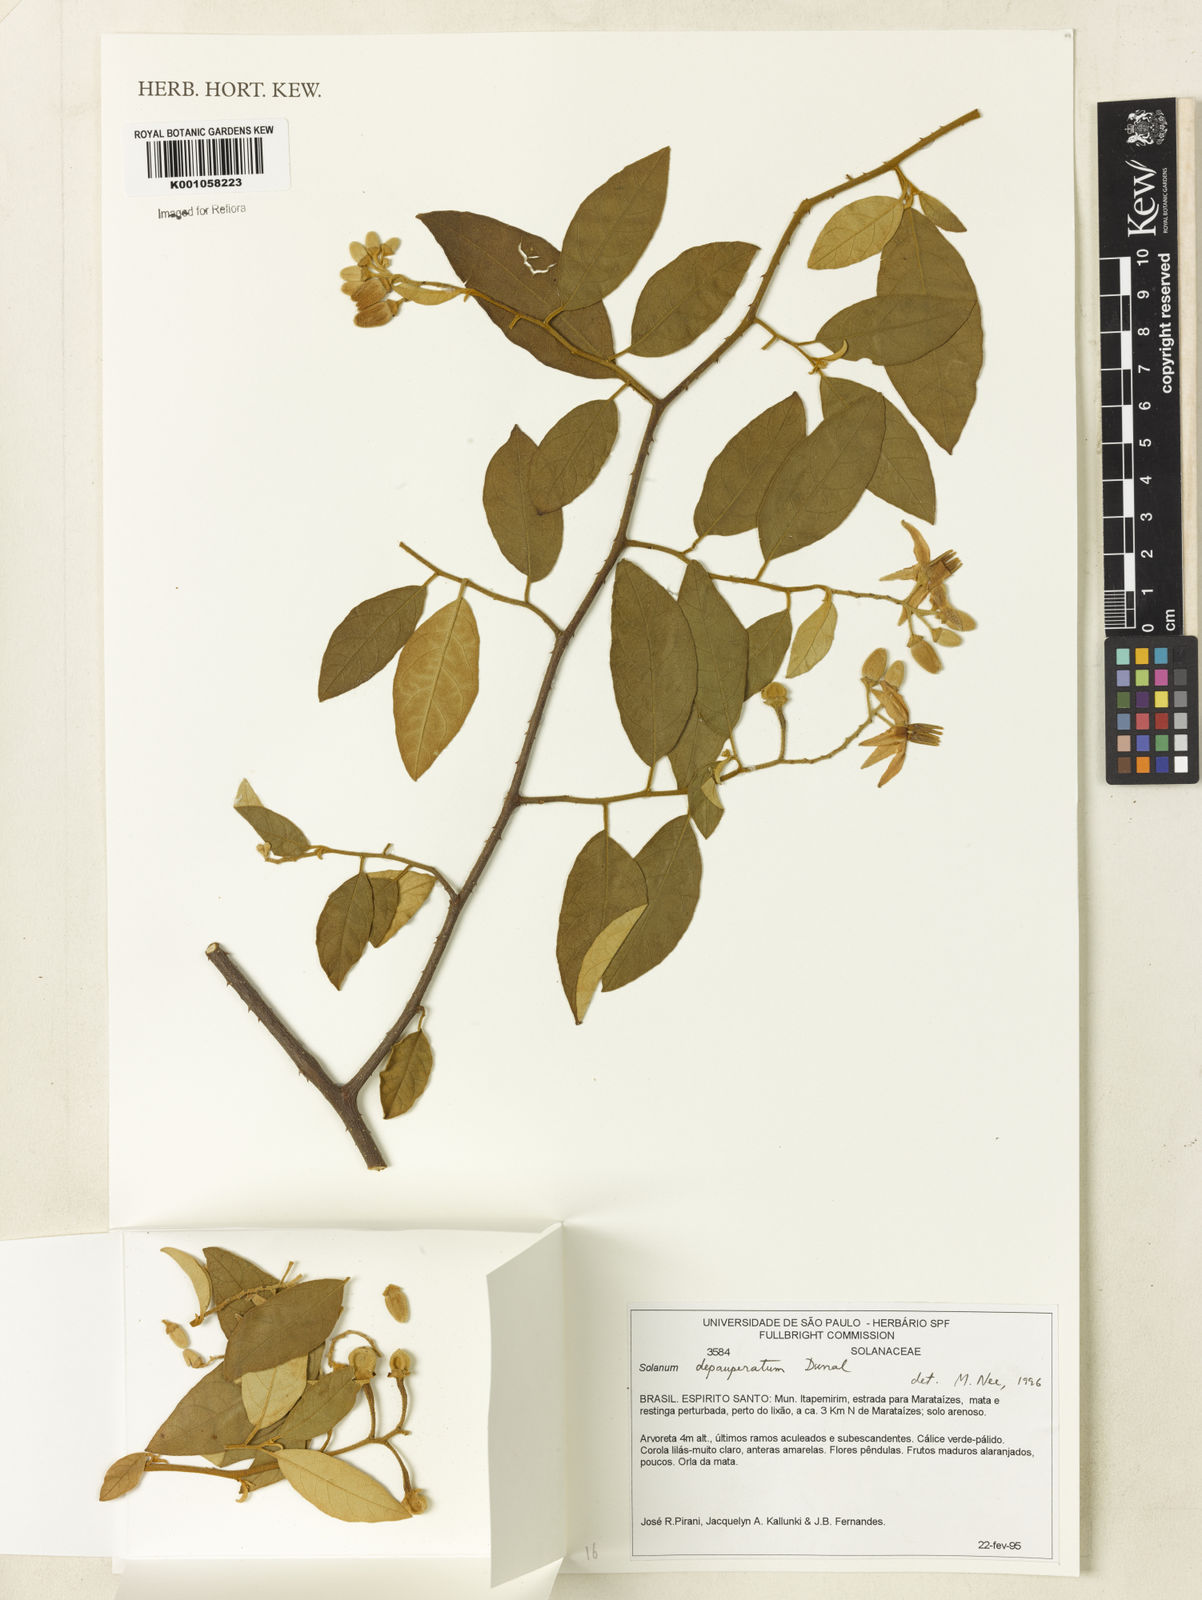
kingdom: Plantae
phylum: Tracheophyta
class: Magnoliopsida
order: Solanales
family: Solanaceae
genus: Solanum
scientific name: Solanum depauperatum
